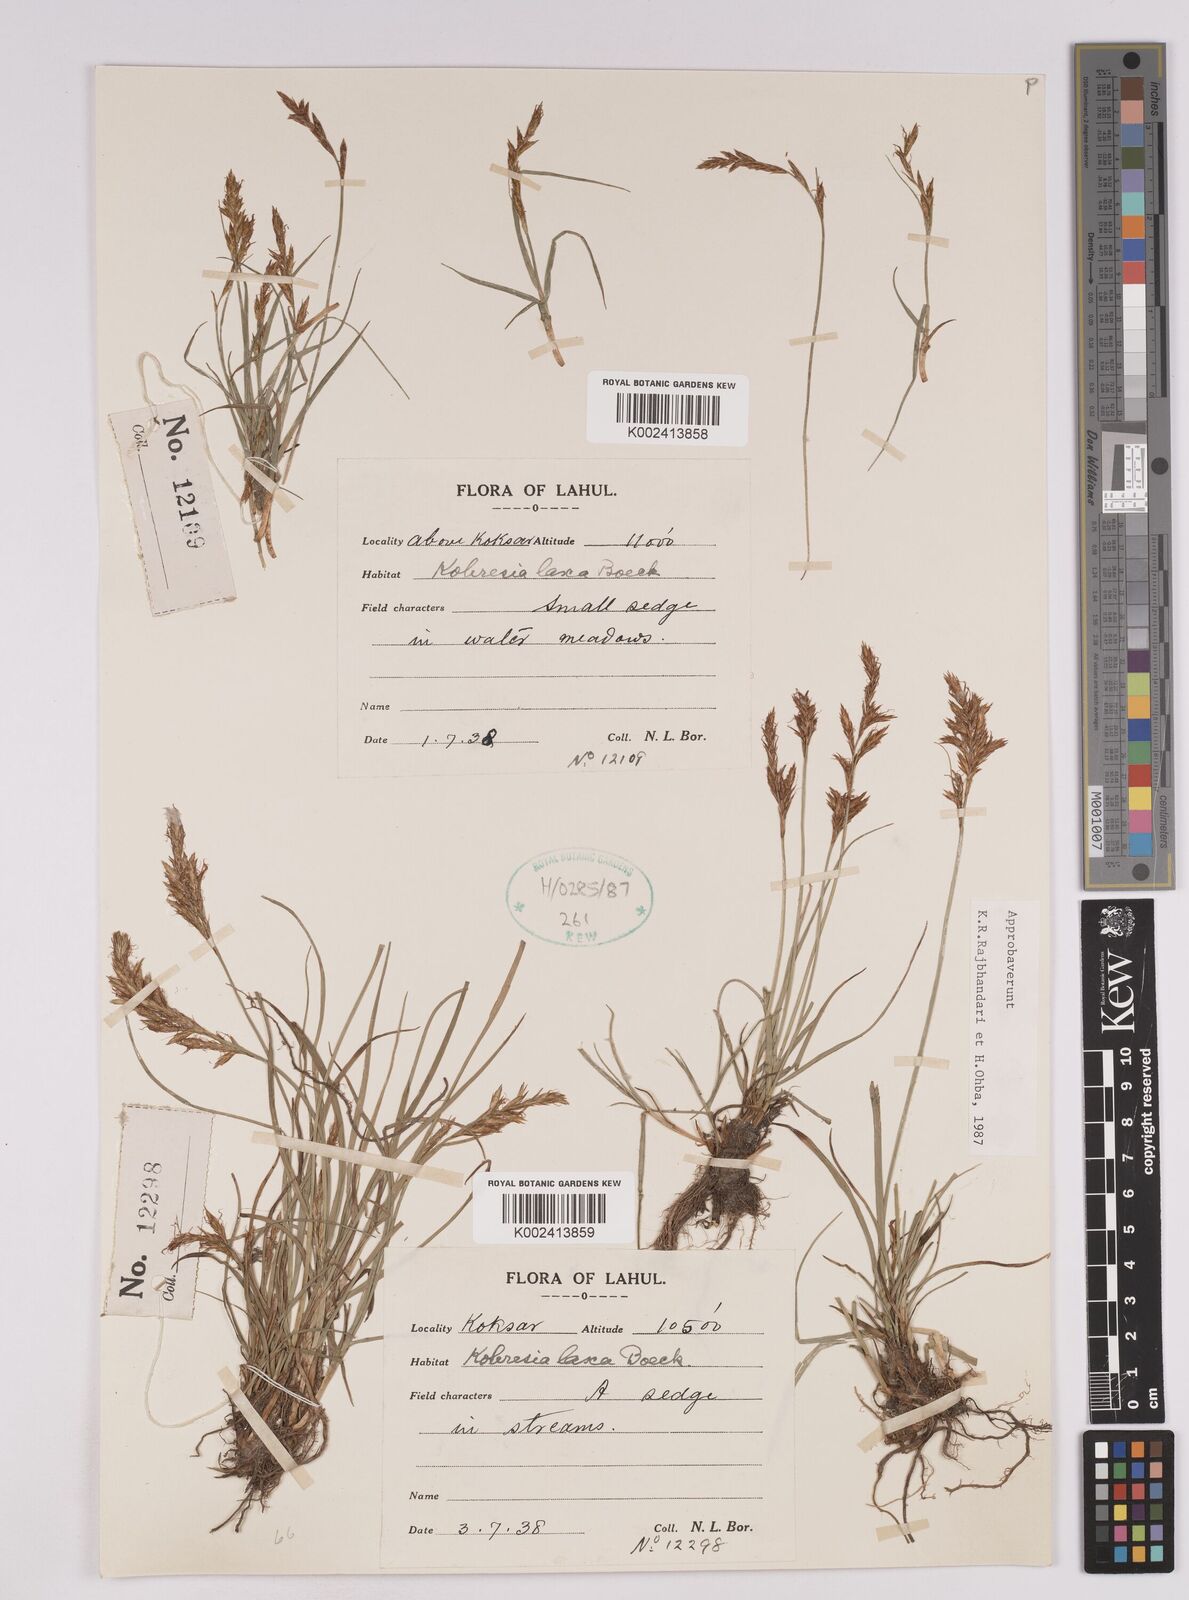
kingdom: Plantae
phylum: Tracheophyta
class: Liliopsida
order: Poales
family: Cyperaceae
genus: Carex
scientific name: Carex pseudolaxa
